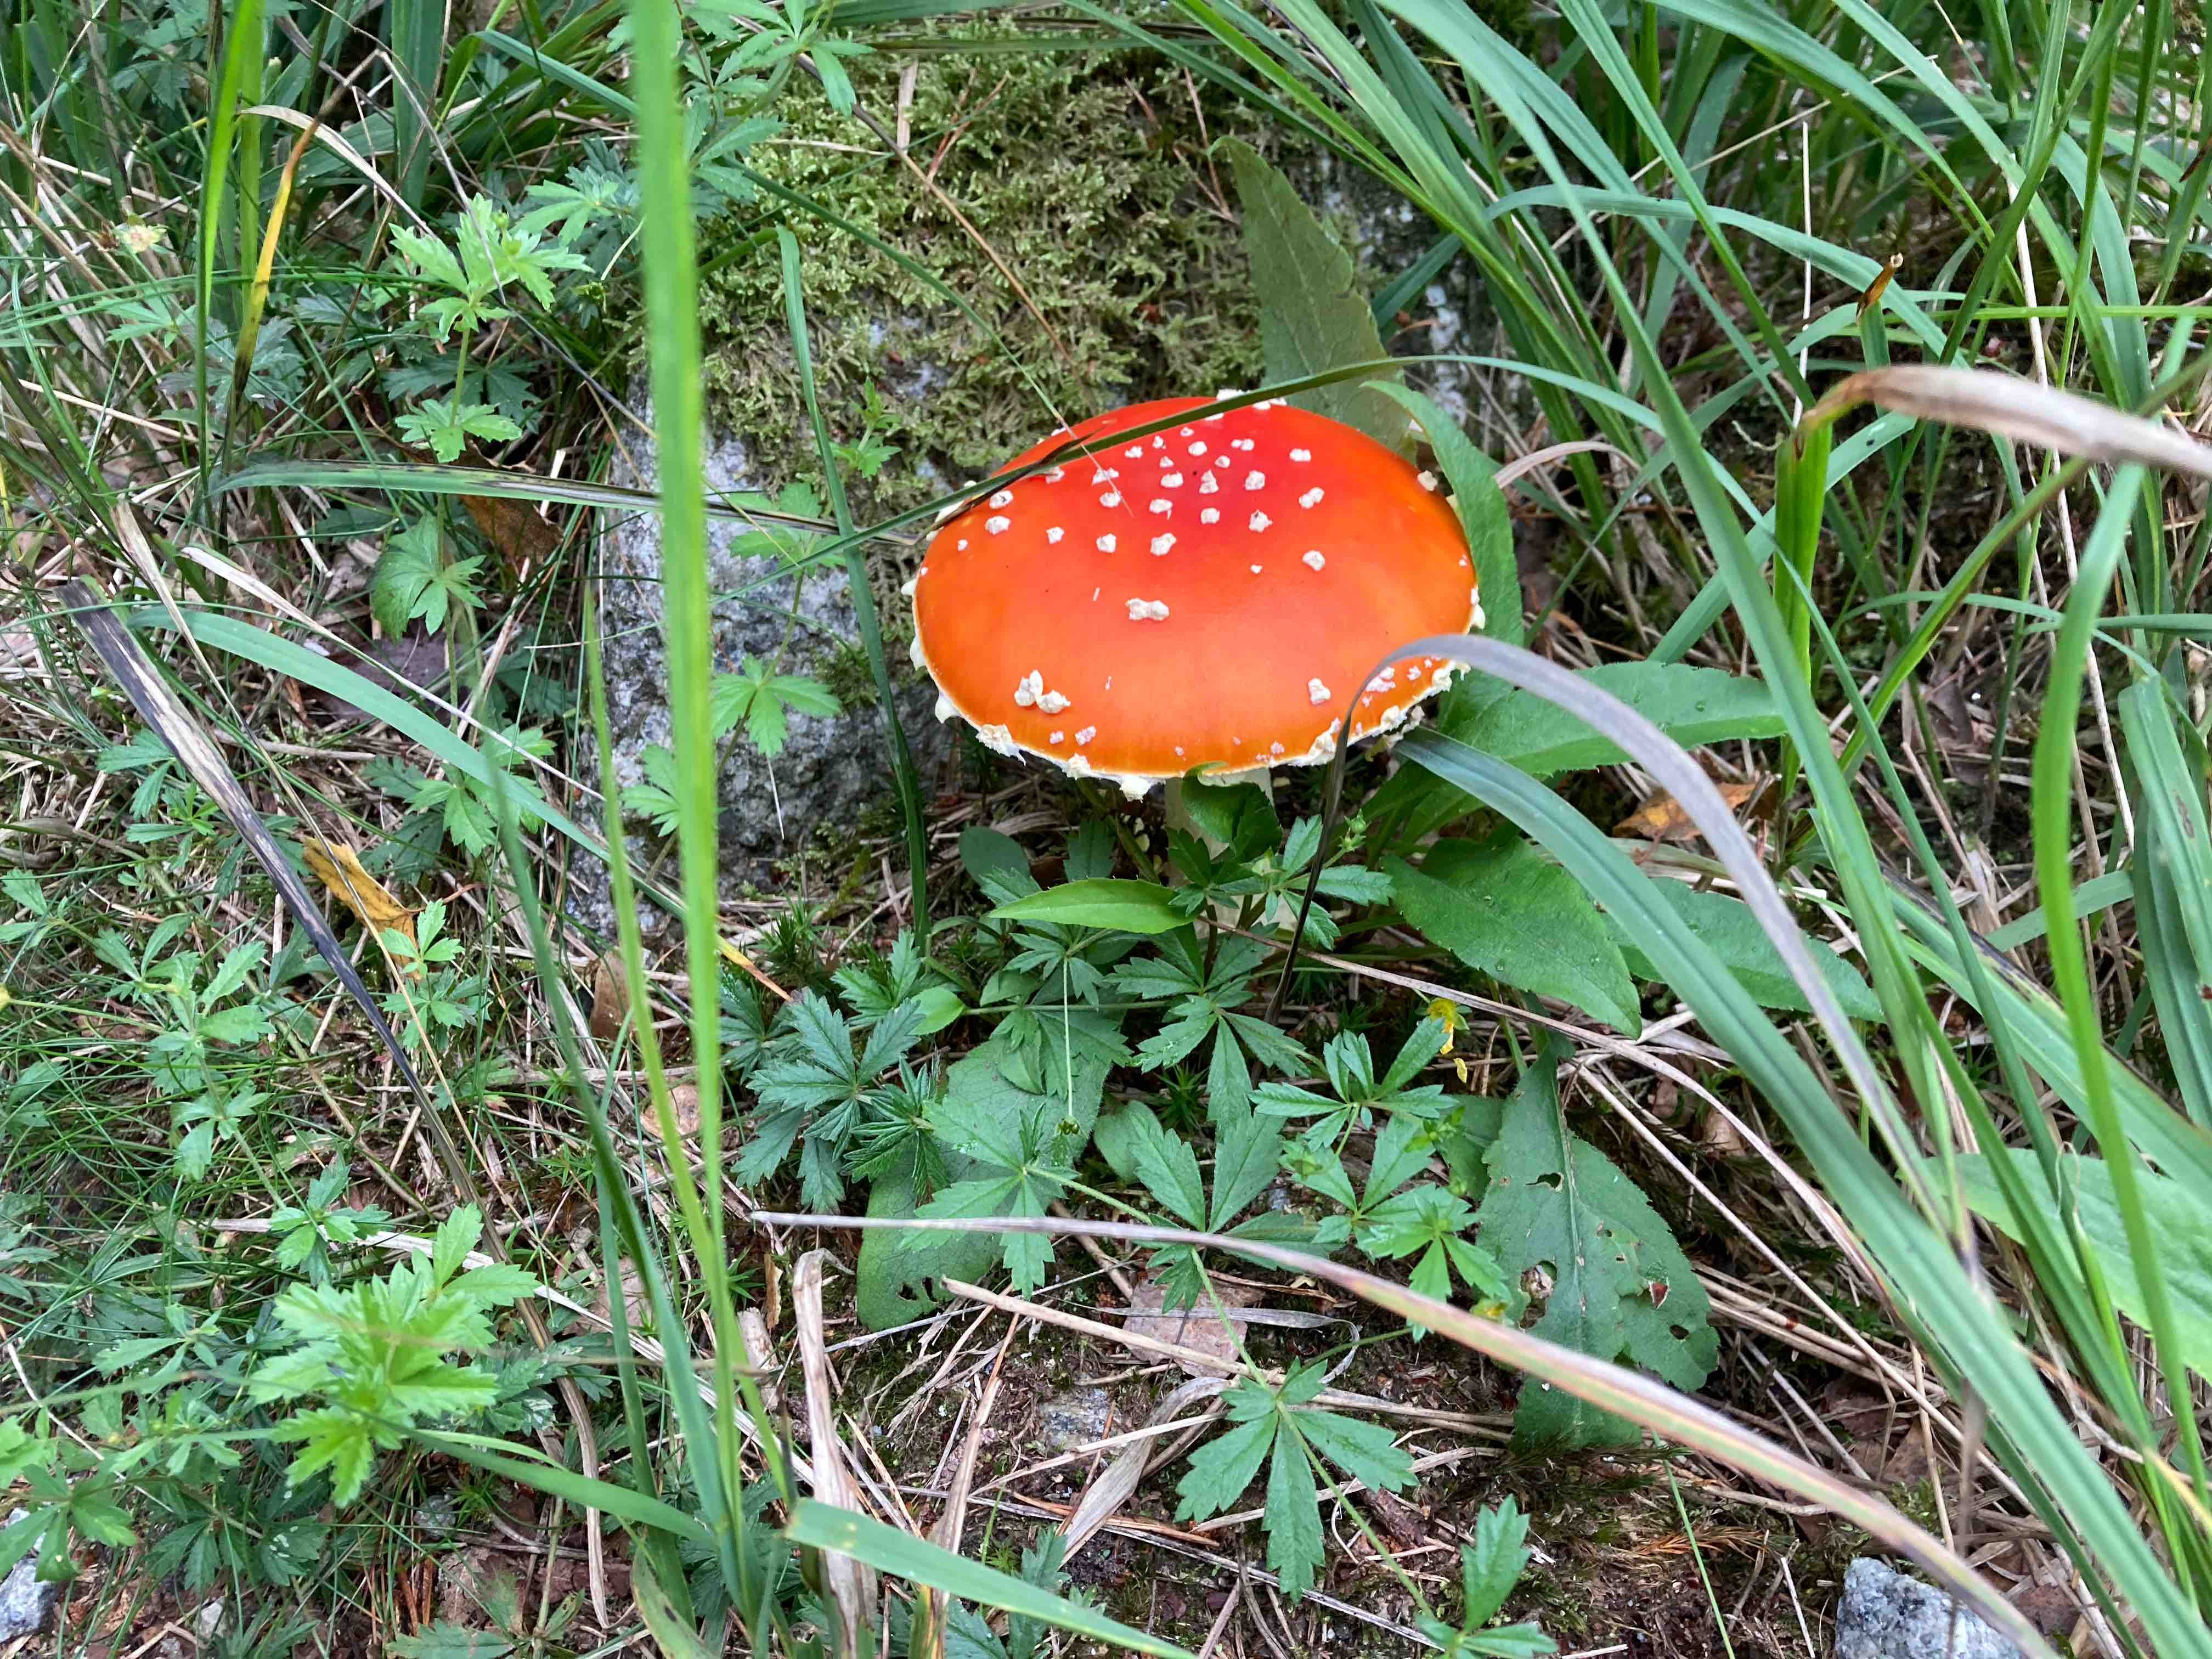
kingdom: Fungi
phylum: Basidiomycota
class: Agaricomycetes
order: Agaricales
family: Amanitaceae
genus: Amanita
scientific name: Amanita muscaria
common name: rød fluesvamp
